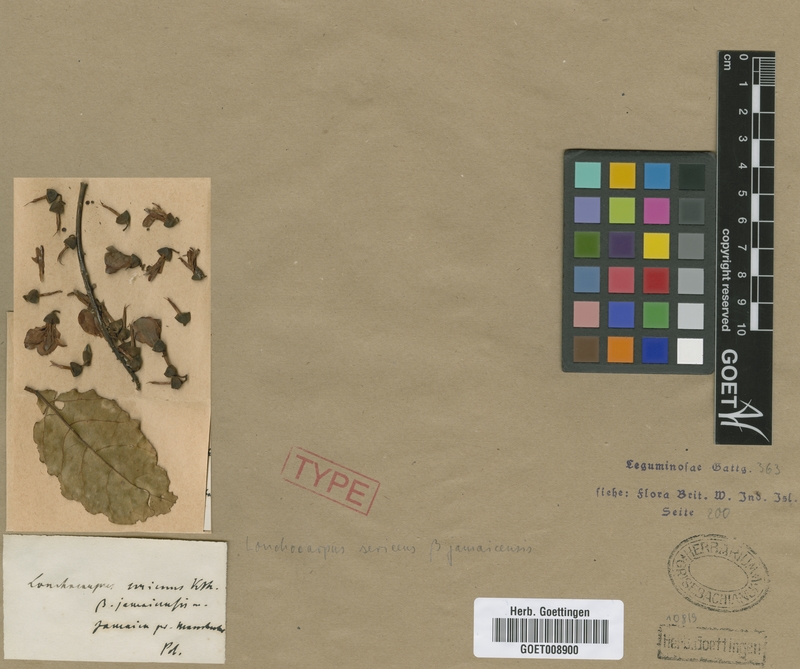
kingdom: Plantae
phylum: Tracheophyta
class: Magnoliopsida
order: Fabales
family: Fabaceae
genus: Lonchocarpus
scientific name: Lonchocarpus sericeus
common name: Savonette
